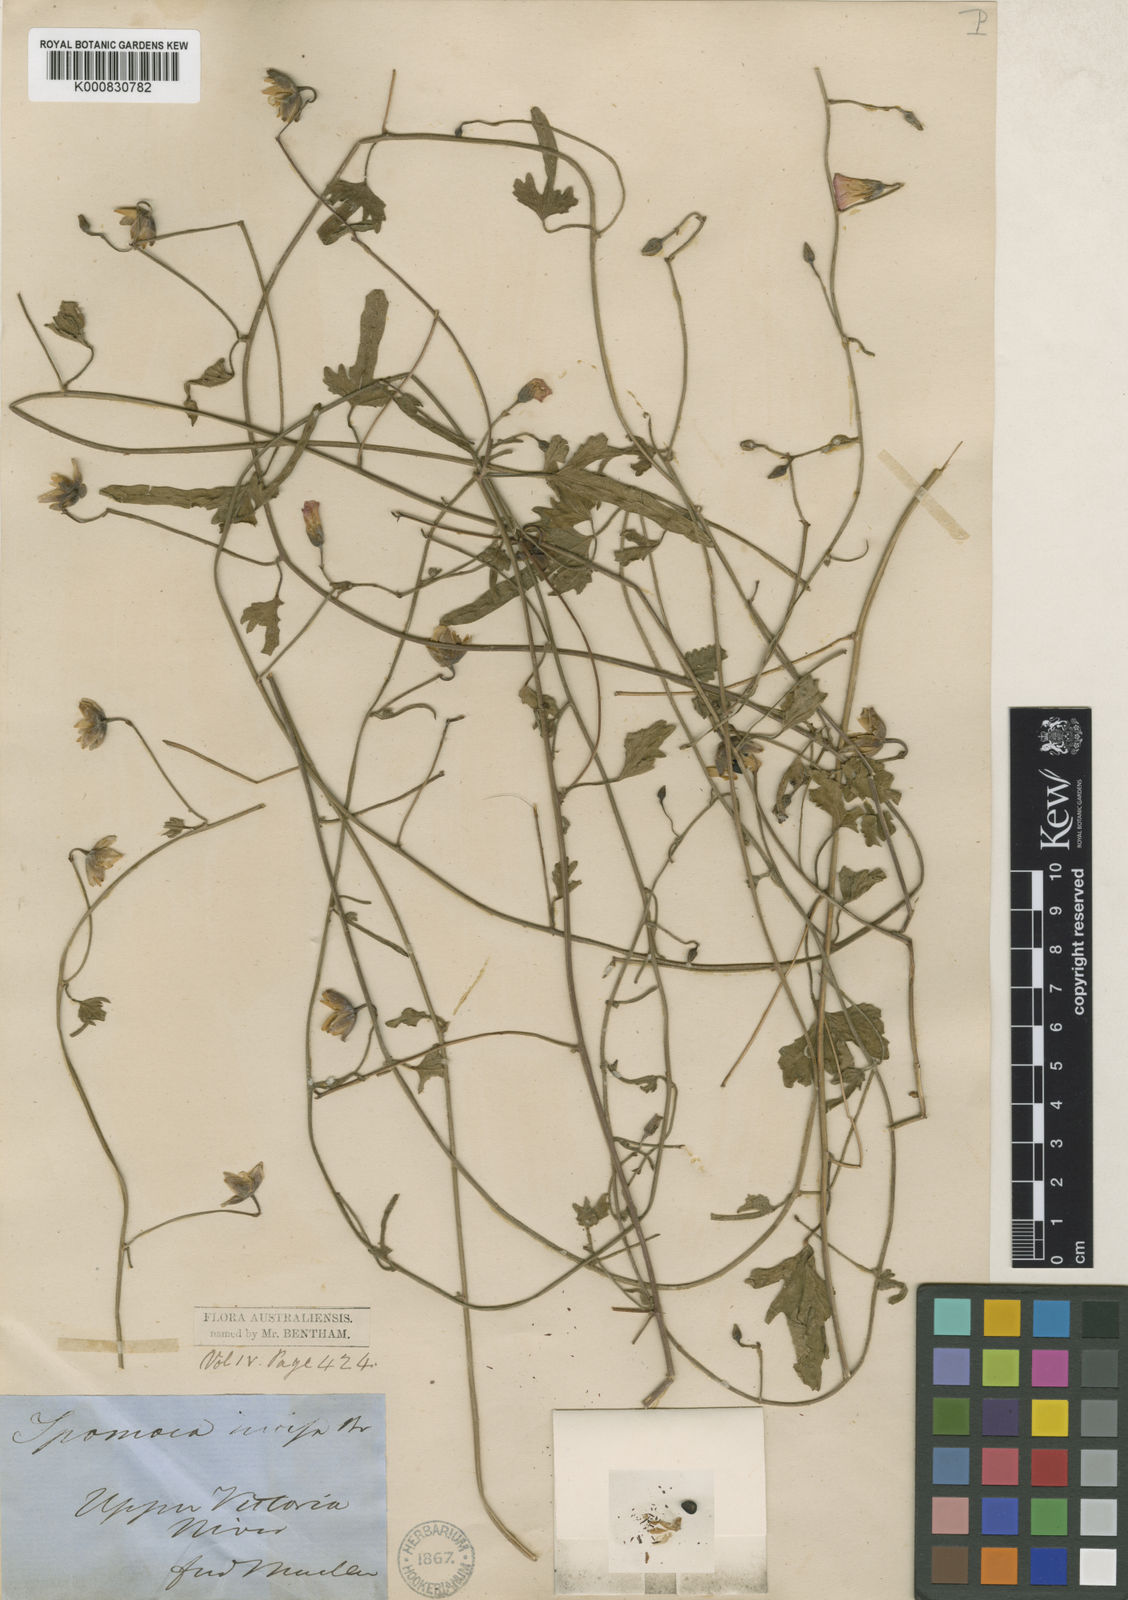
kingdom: Plantae
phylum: Tracheophyta
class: Magnoliopsida
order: Solanales
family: Convolvulaceae
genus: Merremia
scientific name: Merremia incisa
